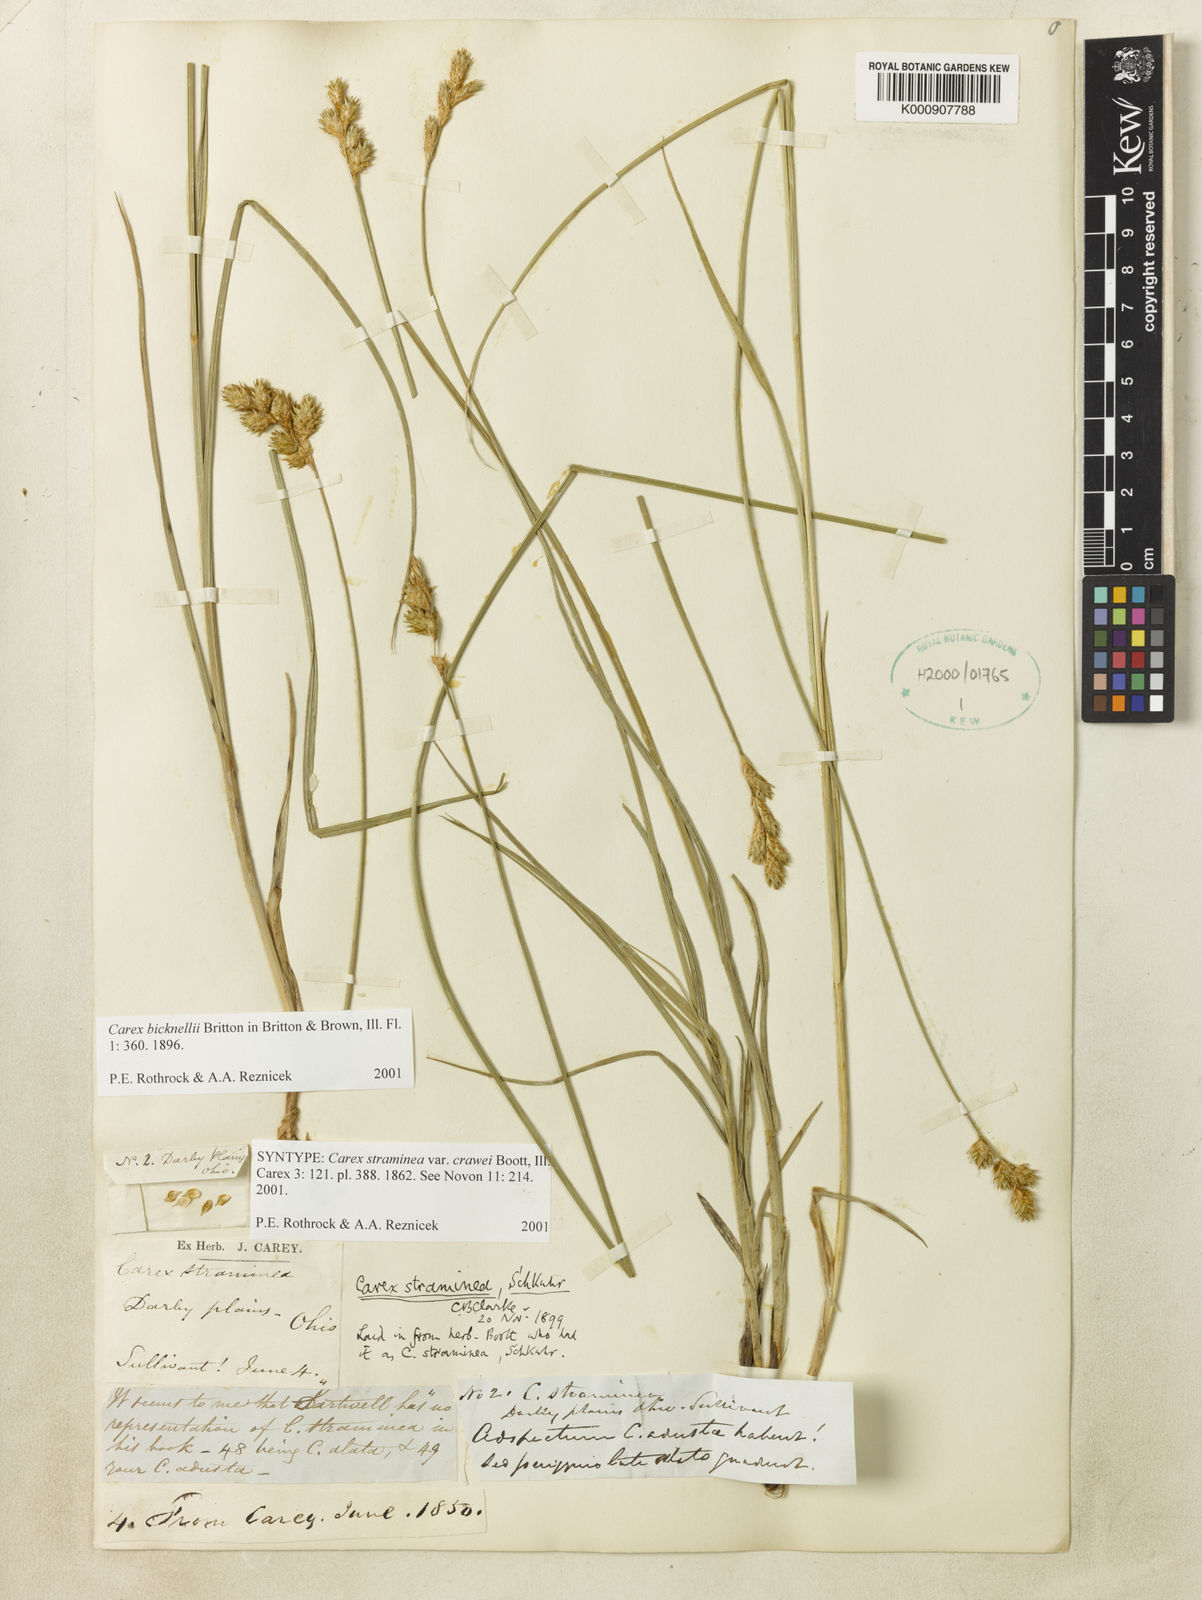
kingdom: Plantae
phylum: Tracheophyta
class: Liliopsida
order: Poales
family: Cyperaceae
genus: Carex
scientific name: Carex brevior
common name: Brevior sedge
